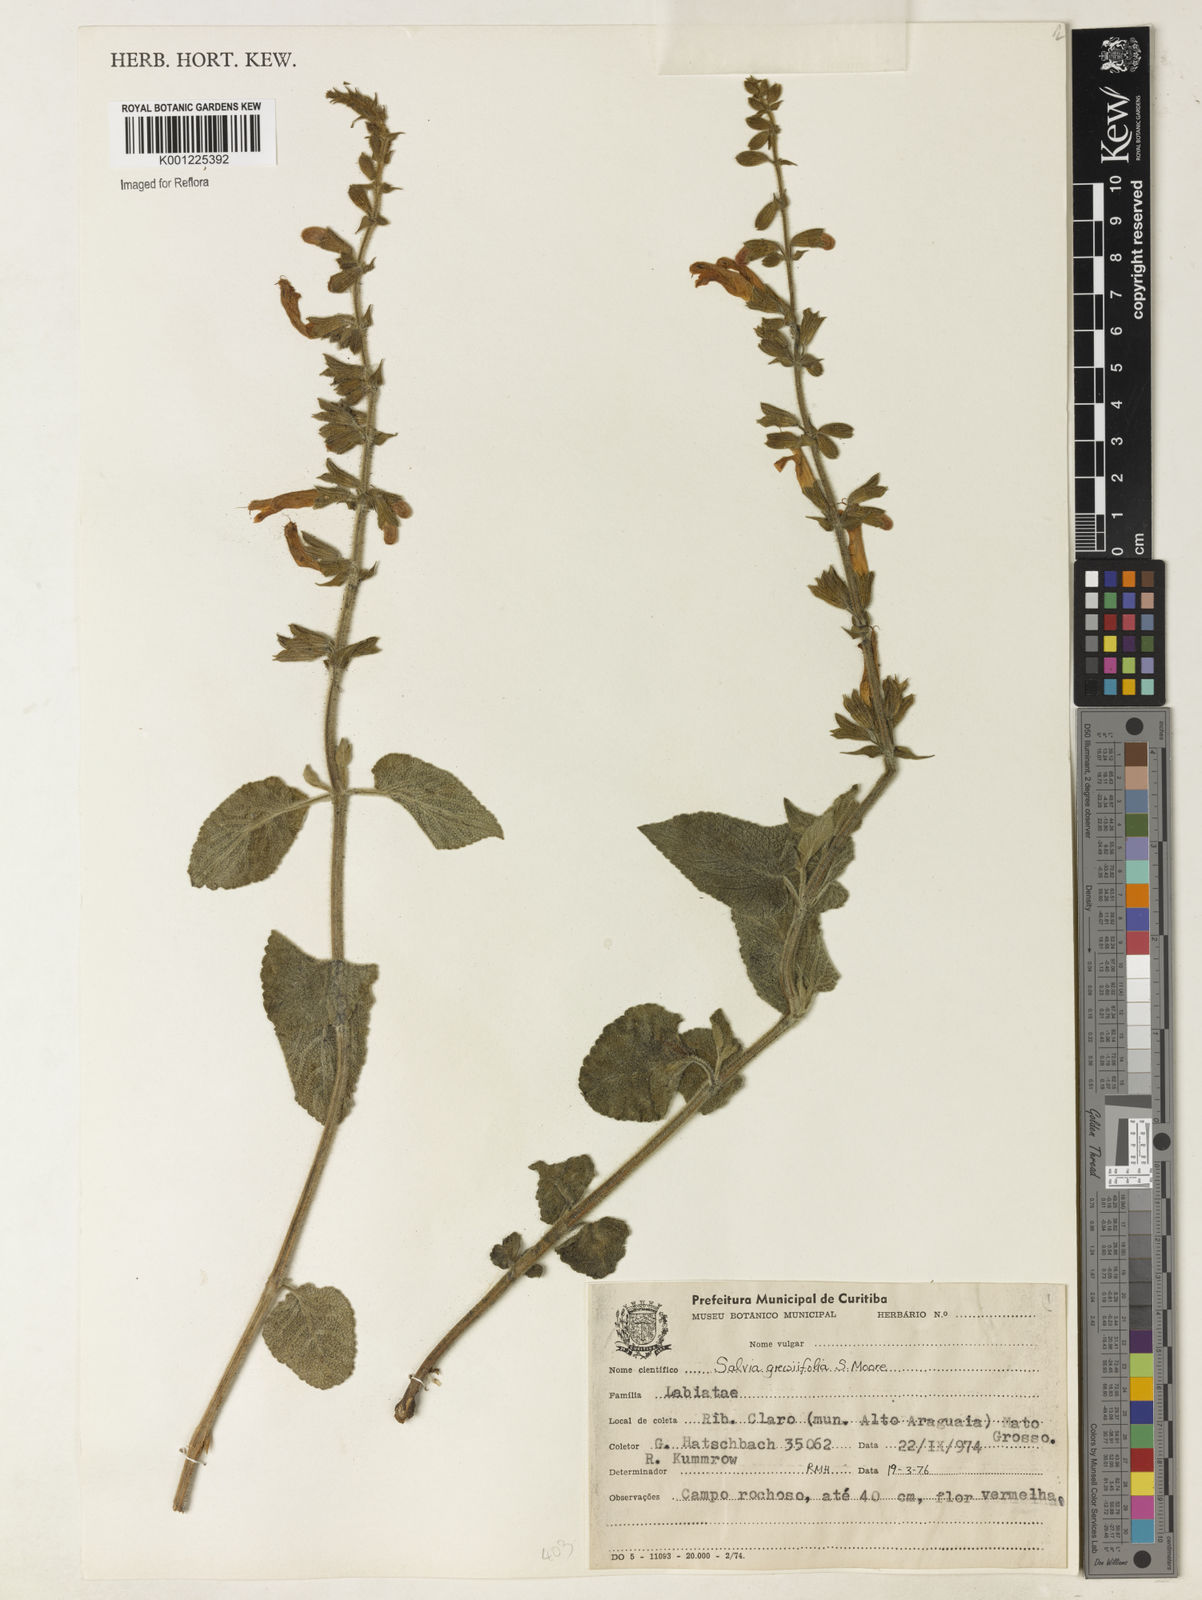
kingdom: Plantae
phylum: Tracheophyta
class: Magnoliopsida
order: Lamiales
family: Lamiaceae
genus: Salvia
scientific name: Salvia grewiifolia
